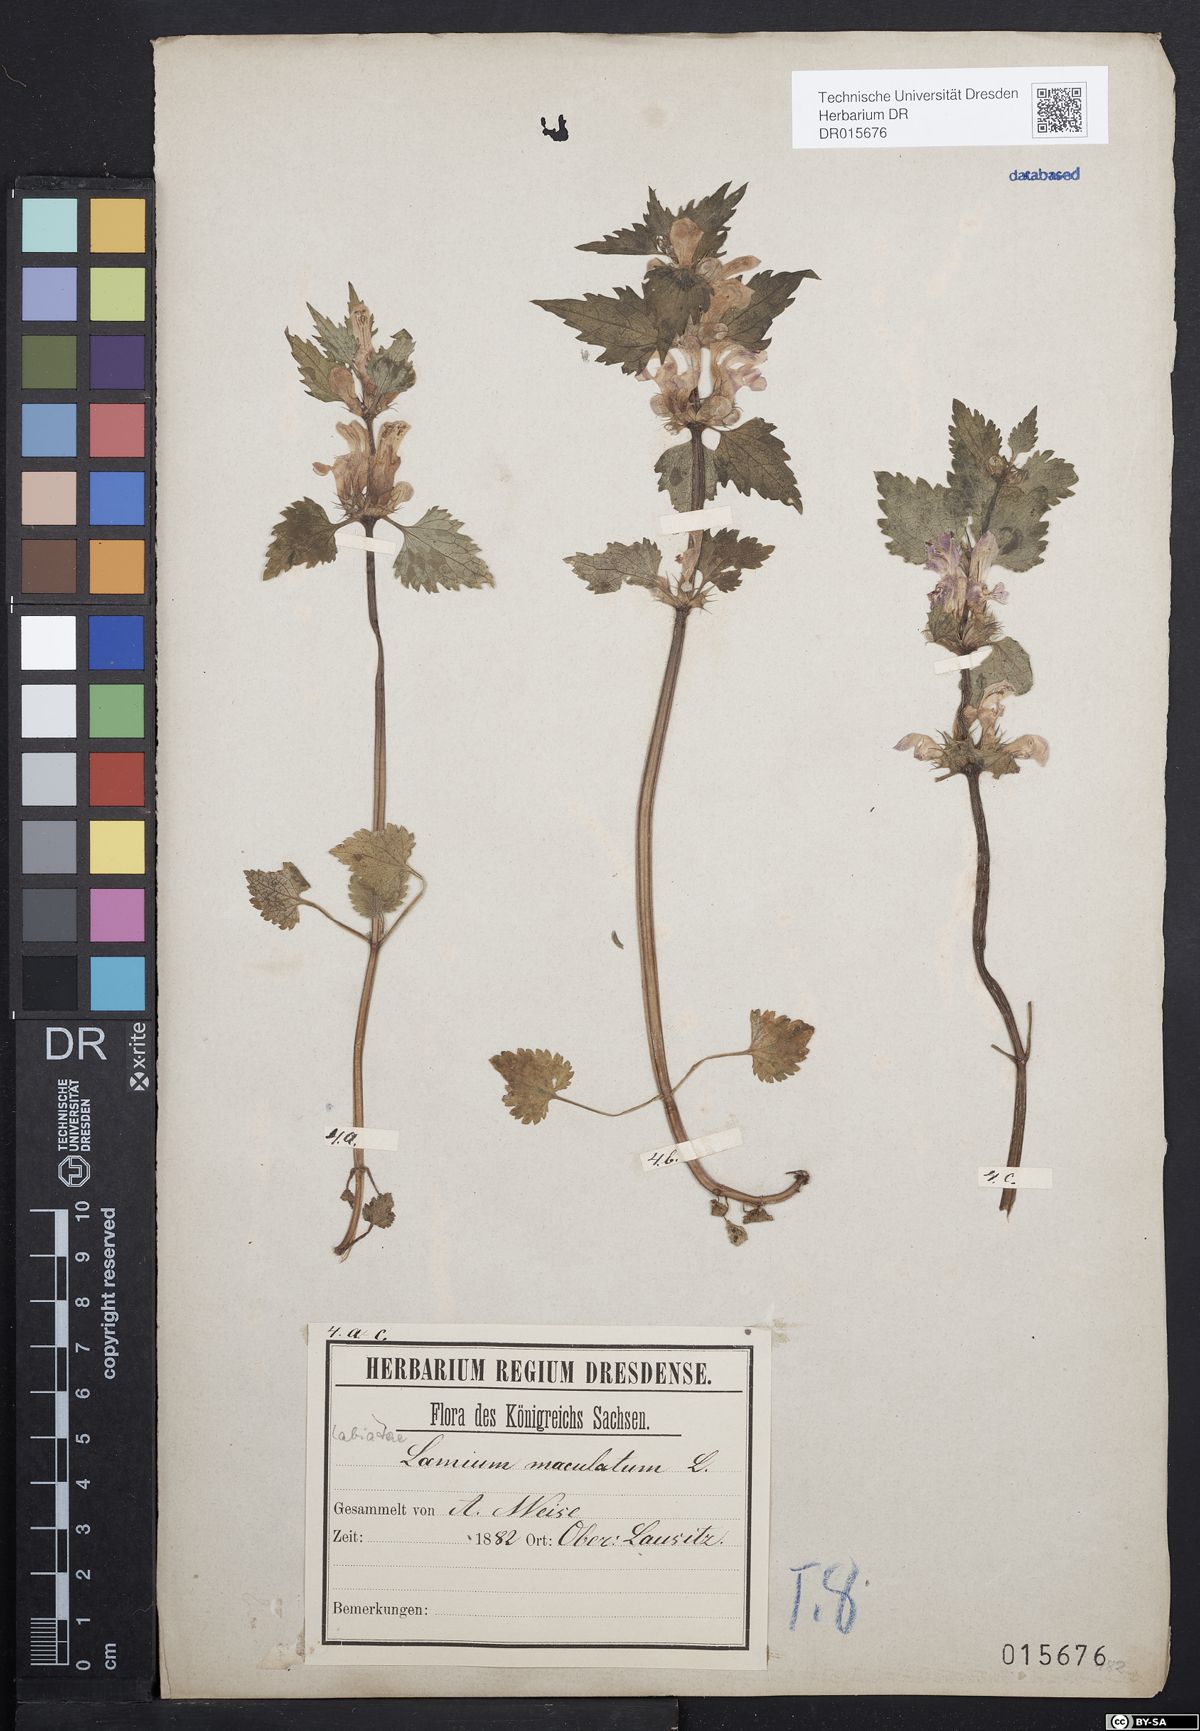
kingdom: Plantae
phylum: Tracheophyta
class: Magnoliopsida
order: Lamiales
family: Lamiaceae
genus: Lamium
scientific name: Lamium maculatum
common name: Spotted dead-nettle
